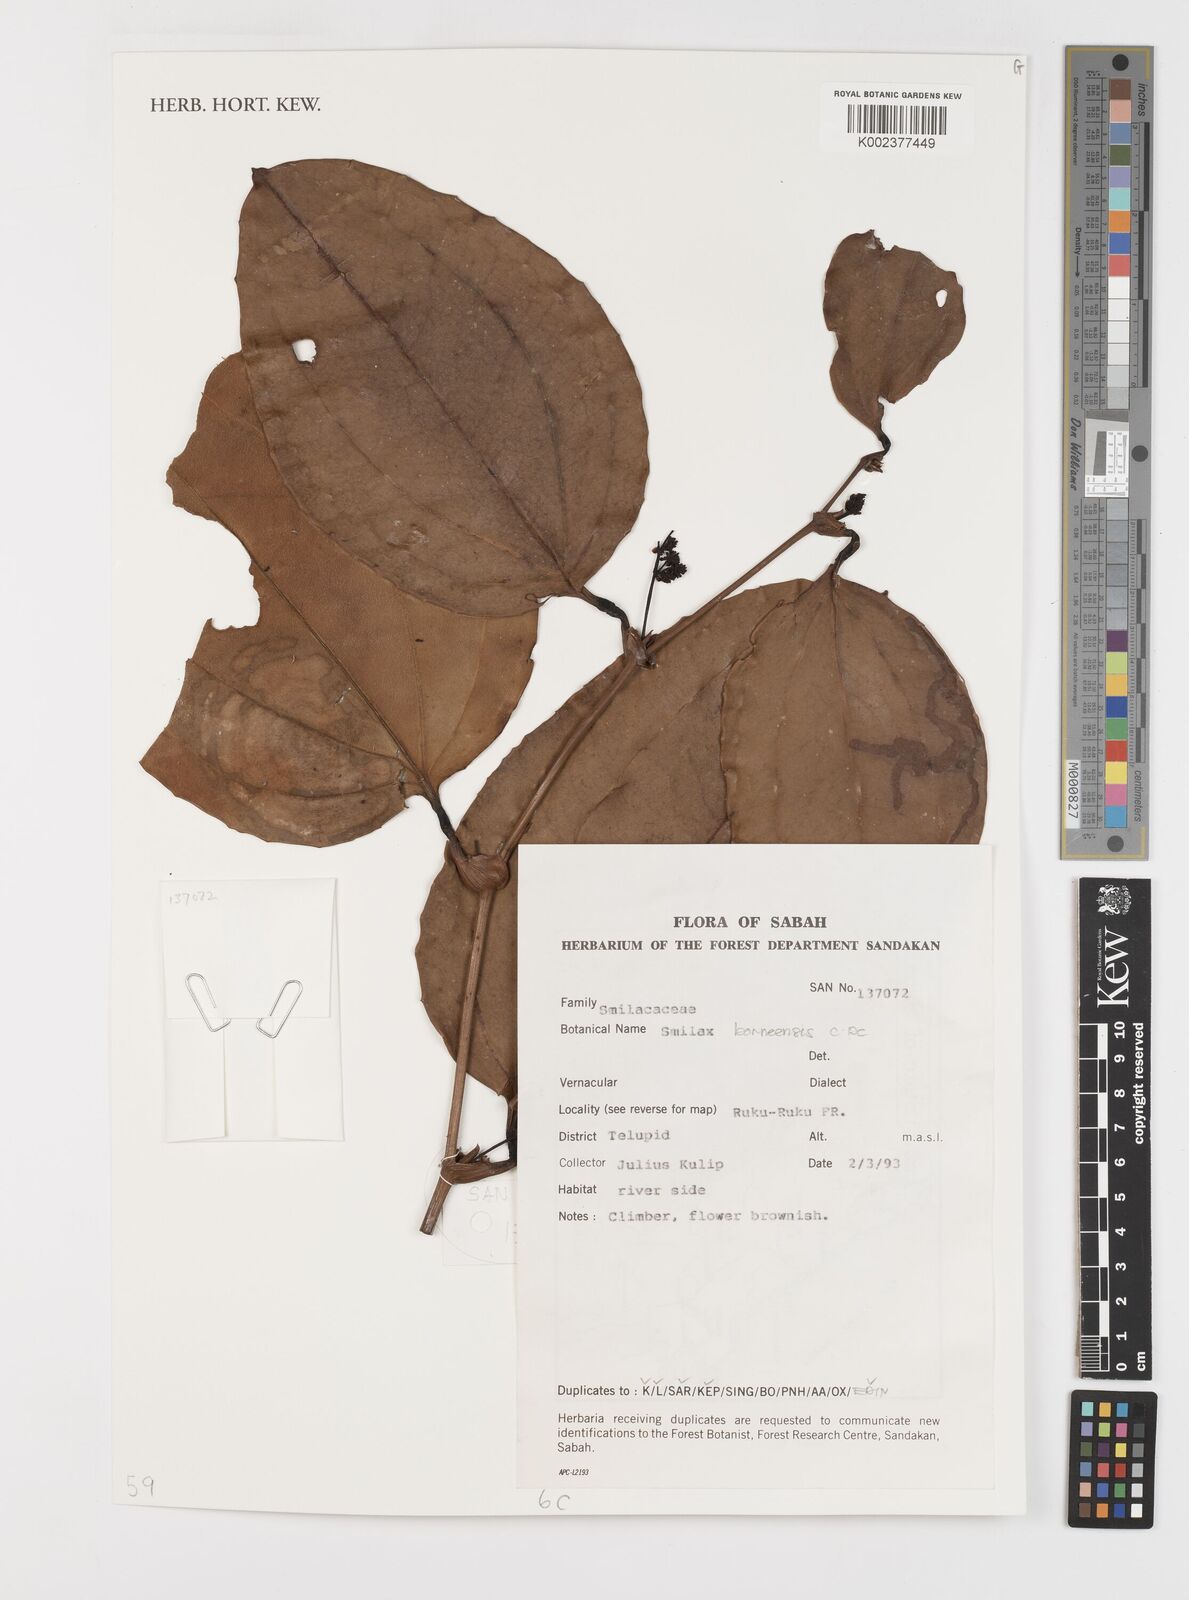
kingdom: Plantae
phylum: Tracheophyta
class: Liliopsida
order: Liliales
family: Smilacaceae
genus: Smilax
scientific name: Smilax borneensis
